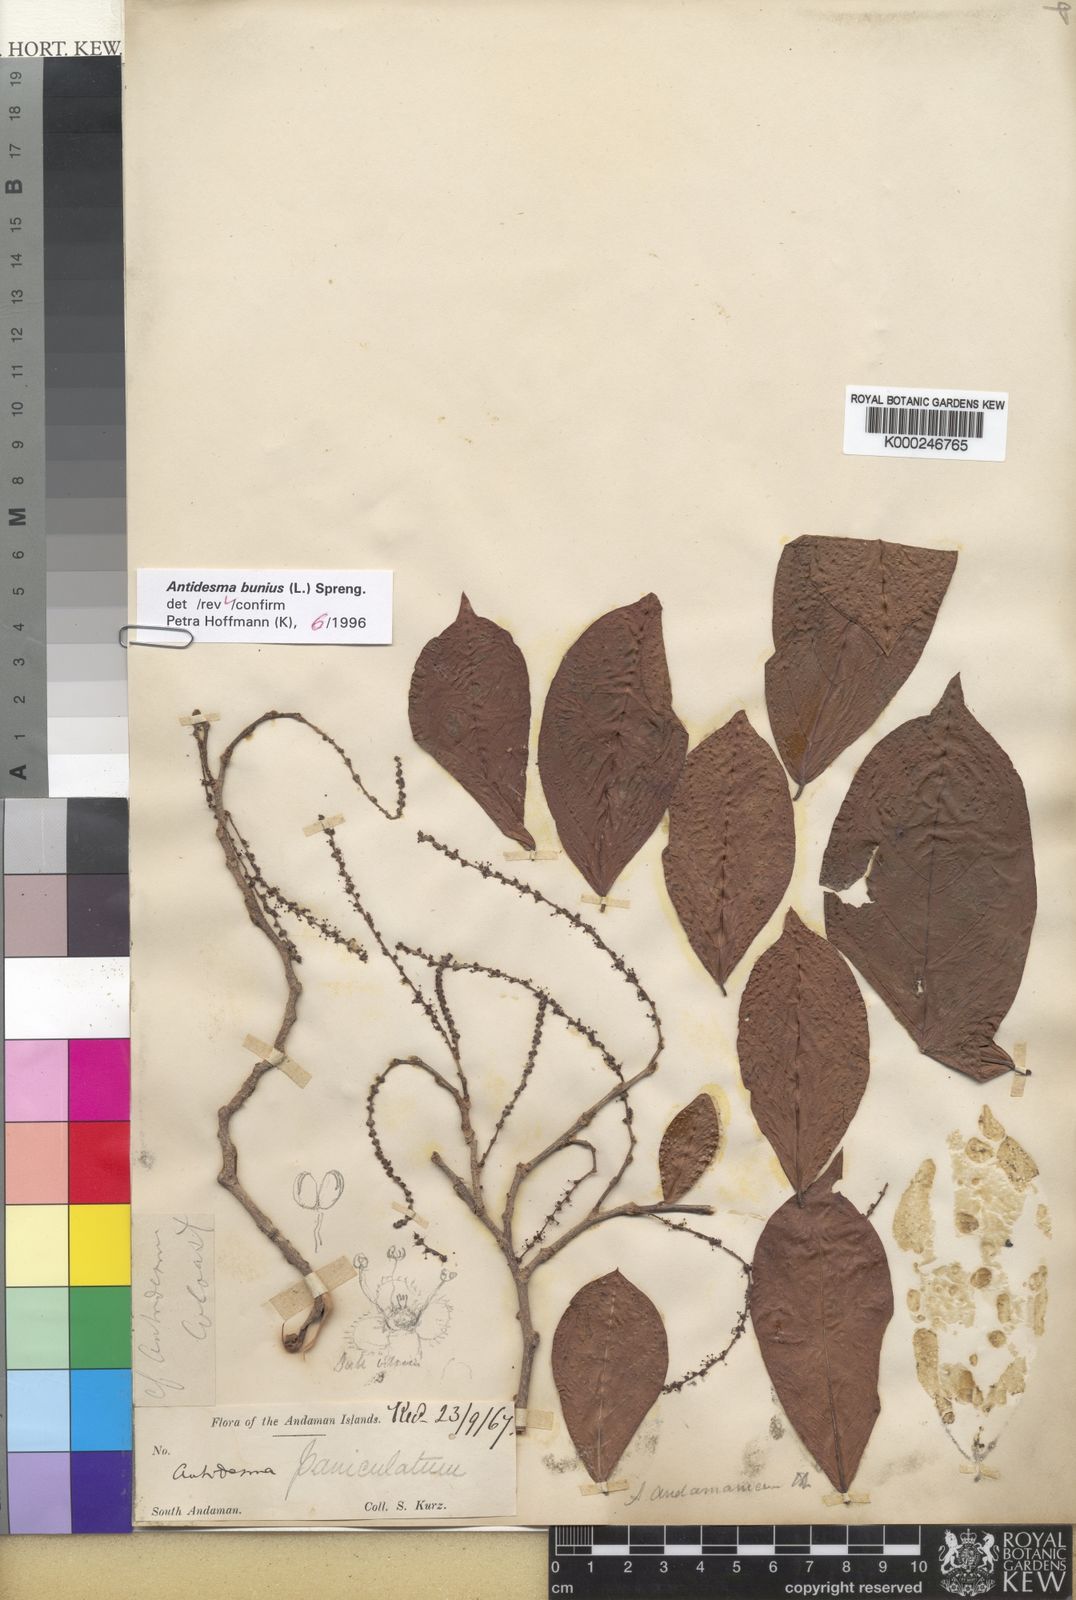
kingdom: Plantae
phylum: Tracheophyta
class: Magnoliopsida
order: Malpighiales
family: Phyllanthaceae
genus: Antidesma
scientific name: Antidesma bunius
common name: Chinese-laurel
